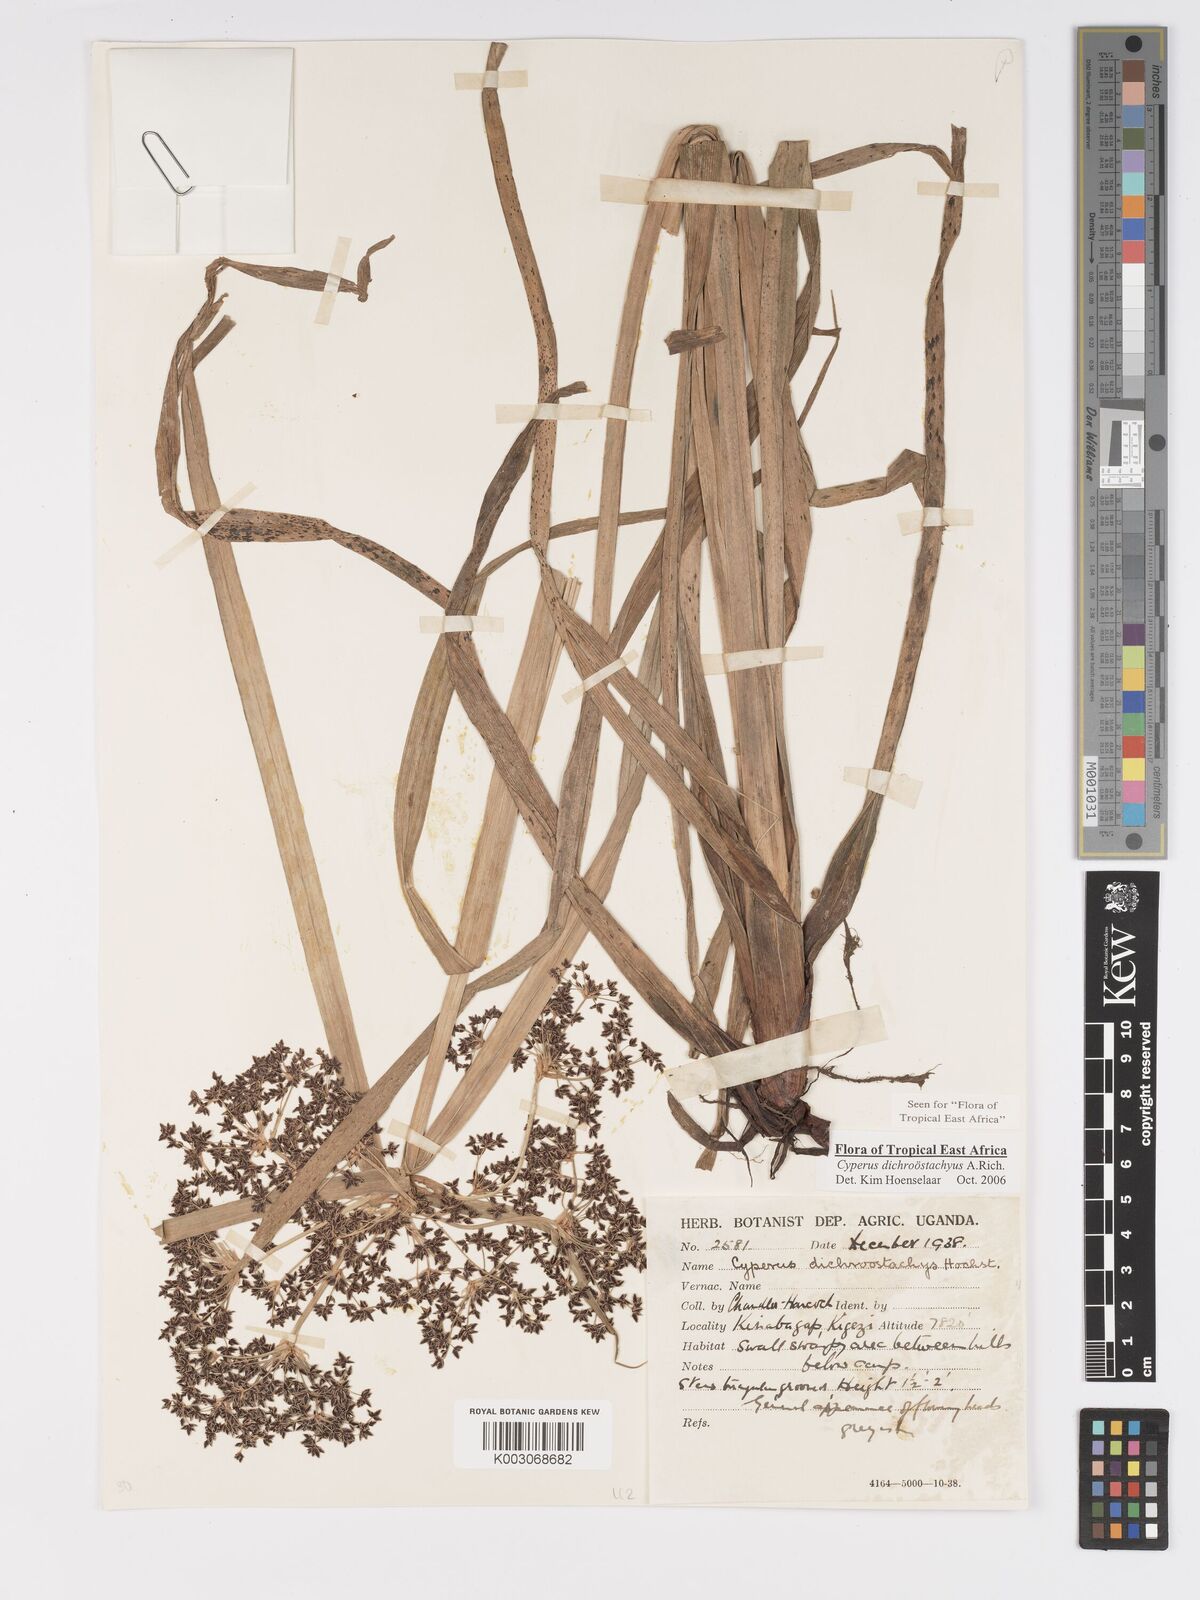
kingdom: Plantae
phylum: Tracheophyta
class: Liliopsida
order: Poales
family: Cyperaceae
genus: Cyperus
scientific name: Cyperus dichrostachyus
